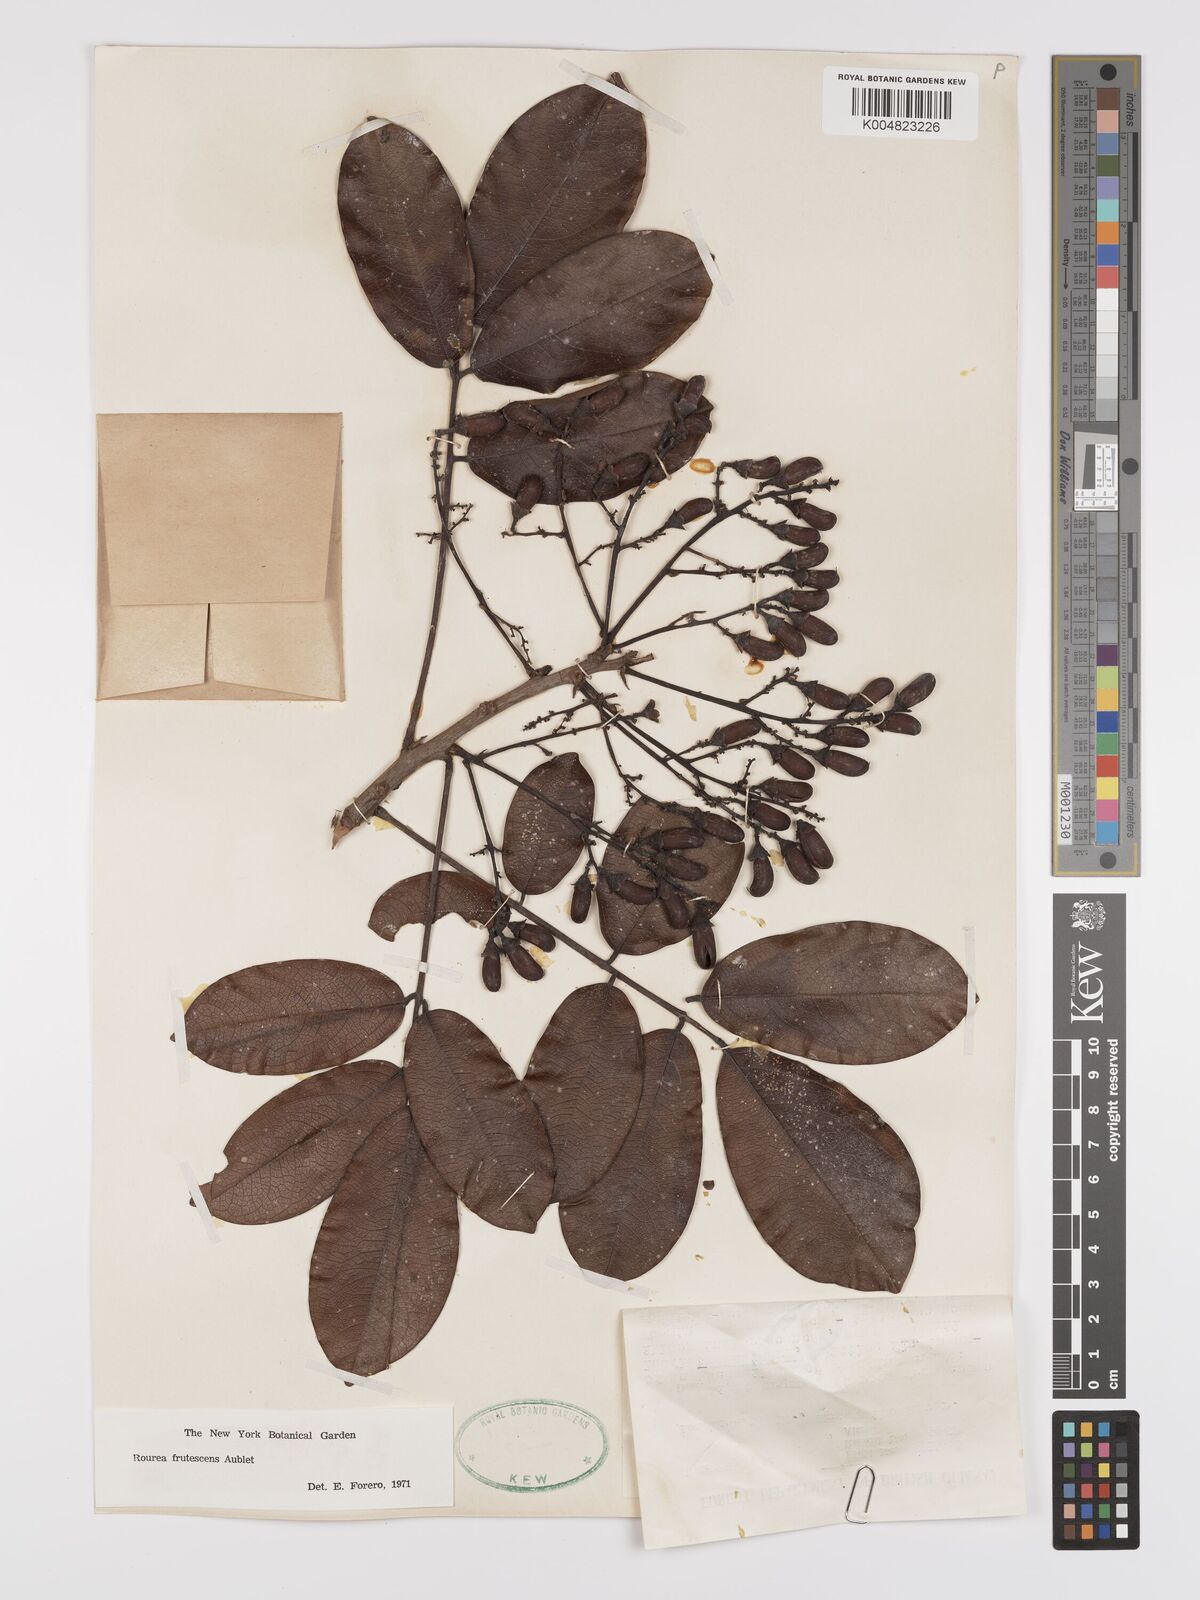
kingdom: Plantae
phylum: Tracheophyta
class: Magnoliopsida
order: Oxalidales
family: Connaraceae
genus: Rourea
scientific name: Rourea frutescens
